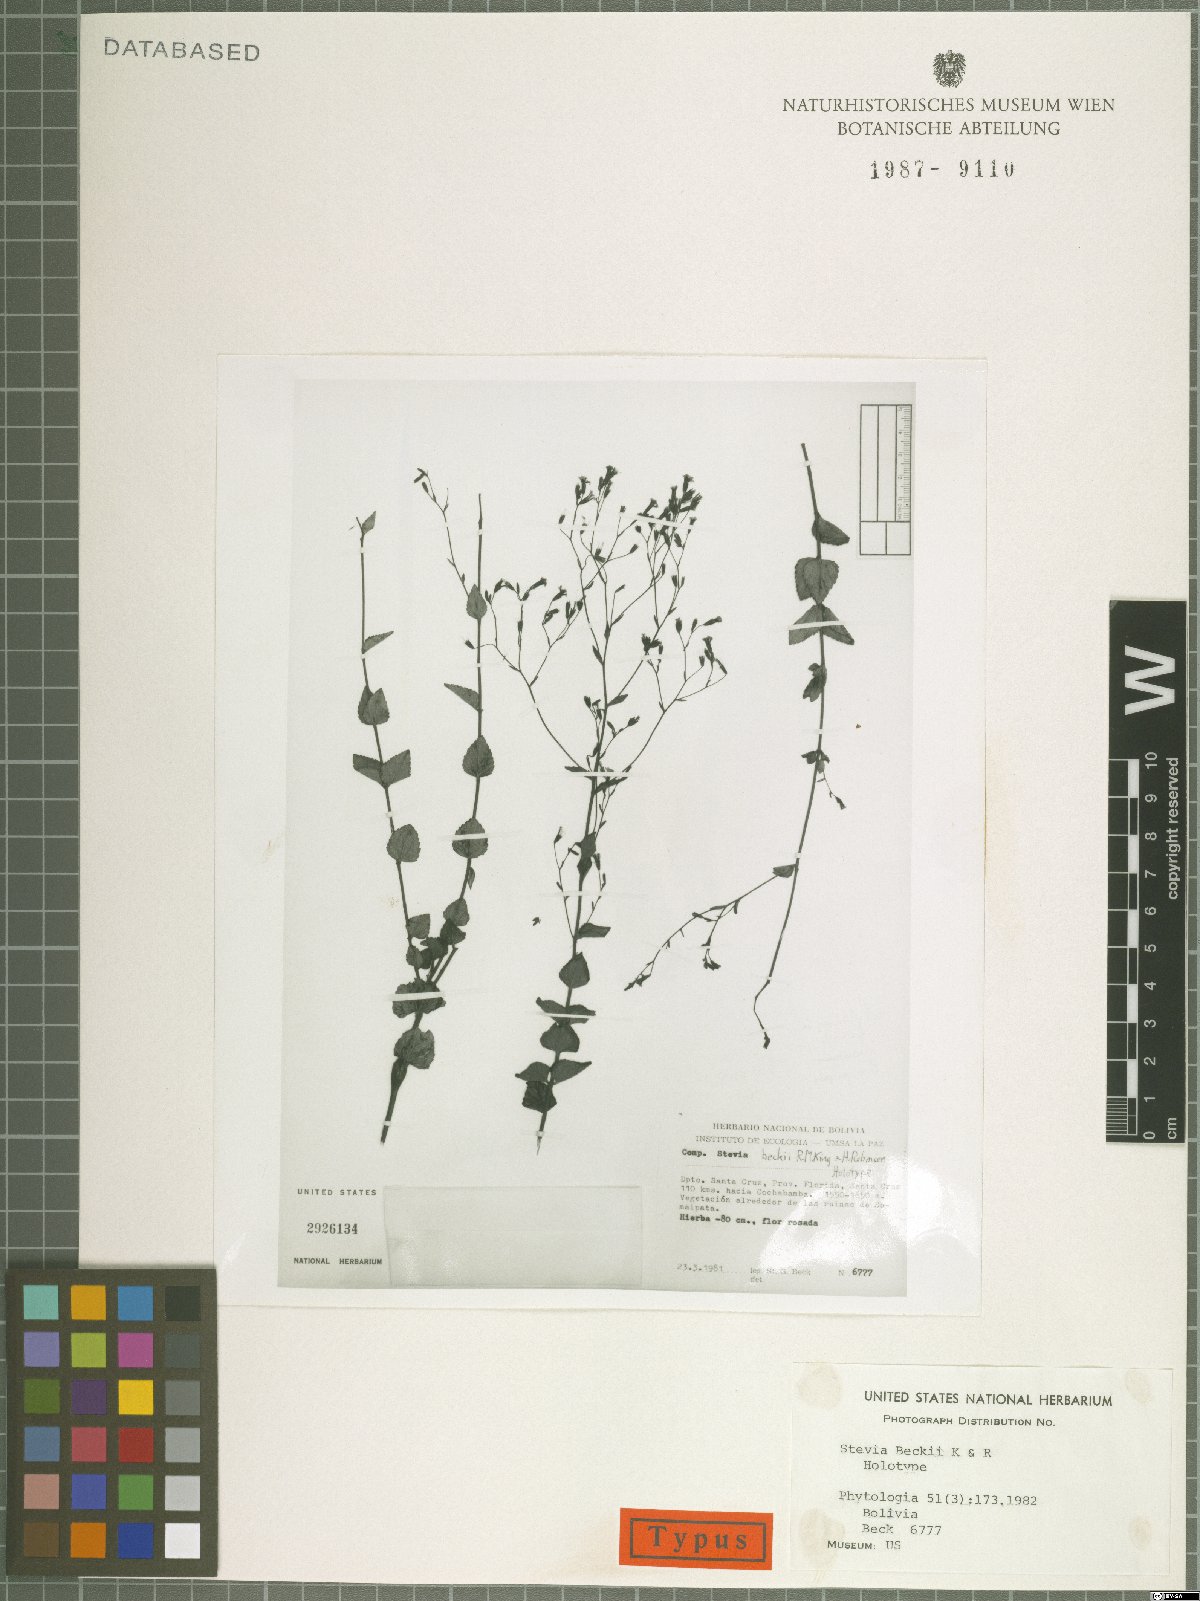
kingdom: Plantae
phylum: Tracheophyta
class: Magnoliopsida
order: Asterales
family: Asteraceae
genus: Stevia
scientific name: Stevia beckii
